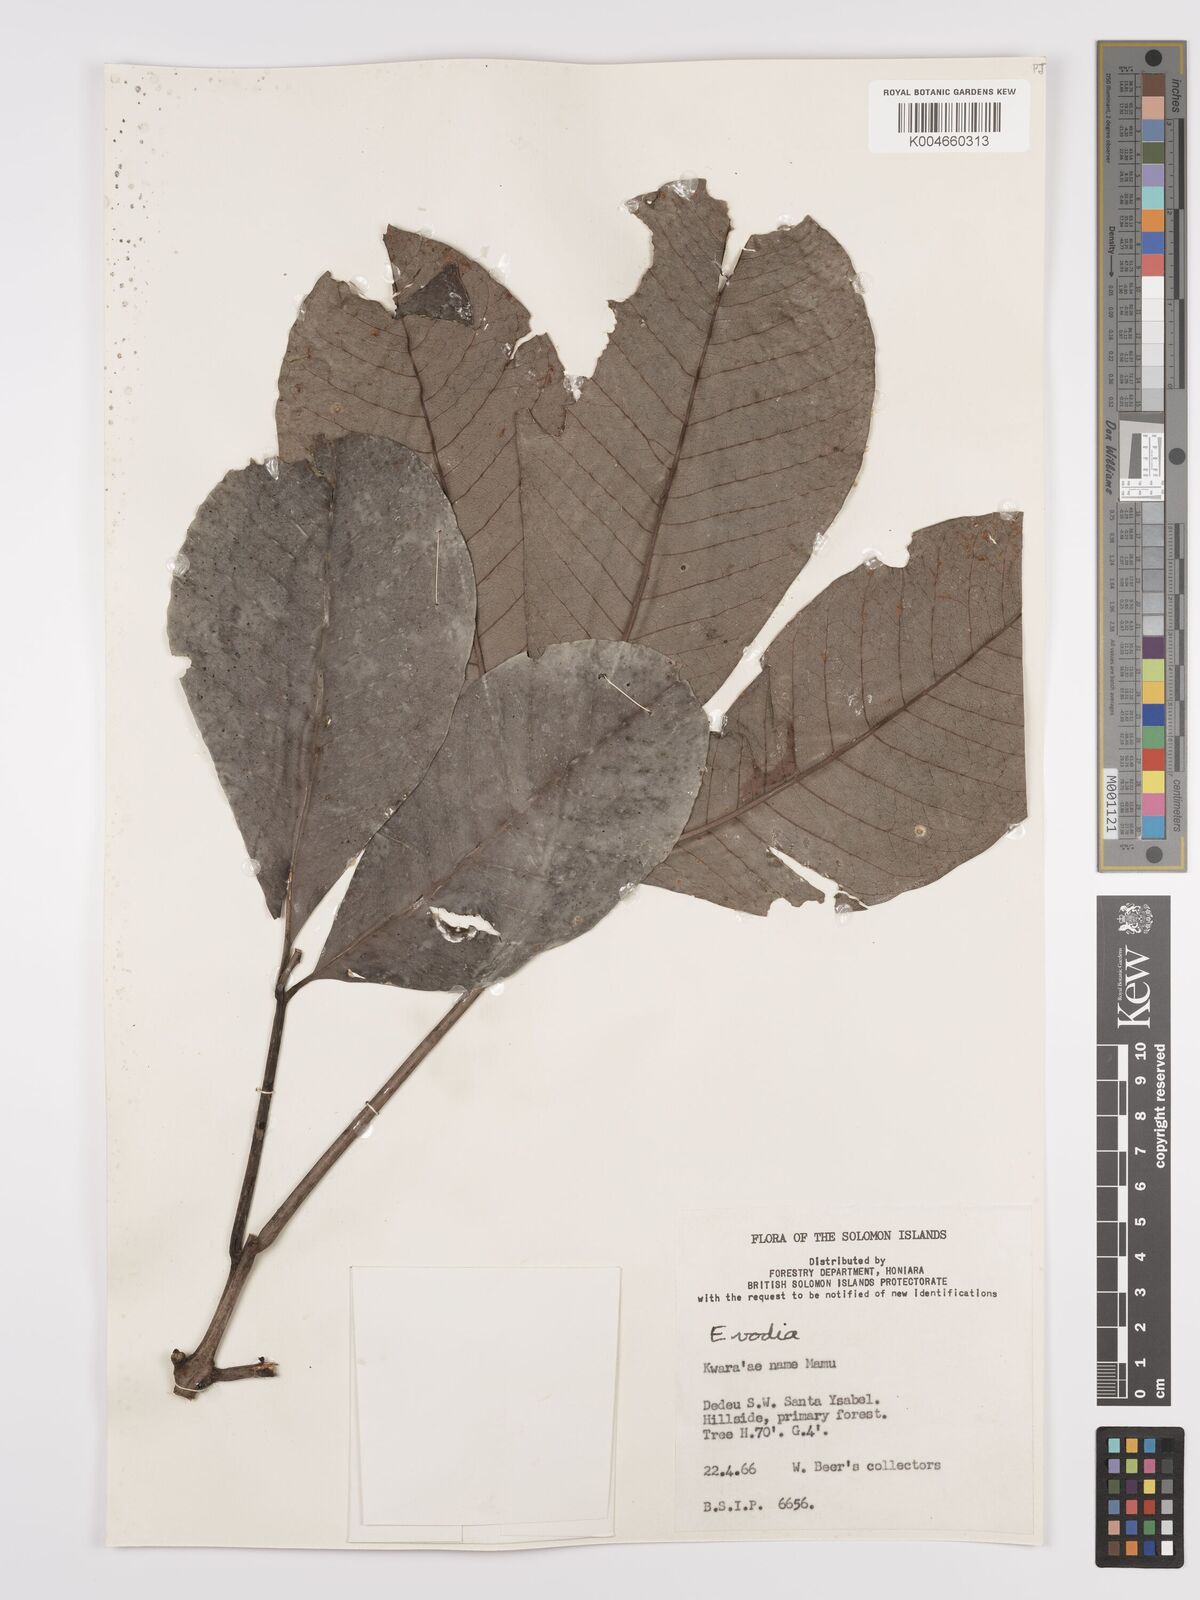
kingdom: Plantae
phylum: Tracheophyta
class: Magnoliopsida
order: Sapindales
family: Rutaceae
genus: Euodia
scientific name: Euodia
